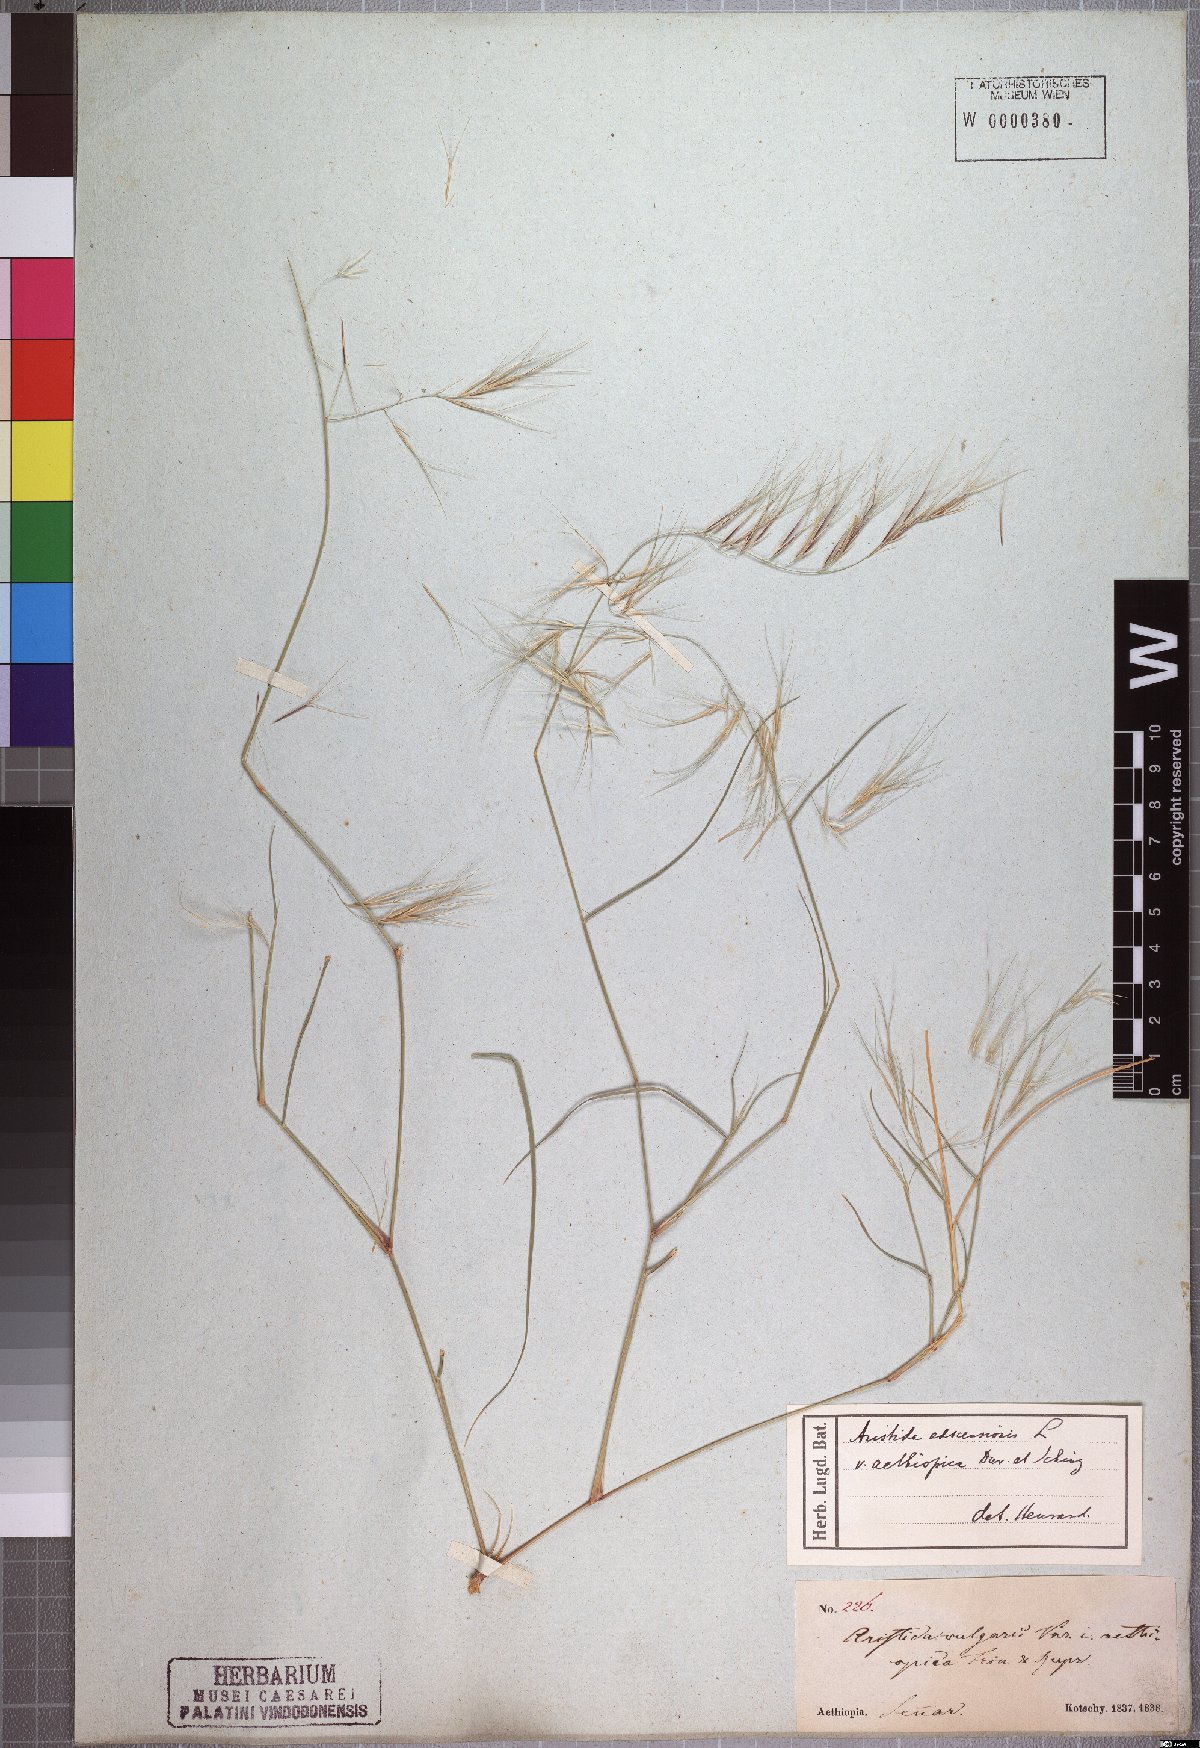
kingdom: Plantae
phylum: Tracheophyta
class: Liliopsida
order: Poales
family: Poaceae
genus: Aristida
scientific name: Aristida adscensionis
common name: Sixweeks threeawn
